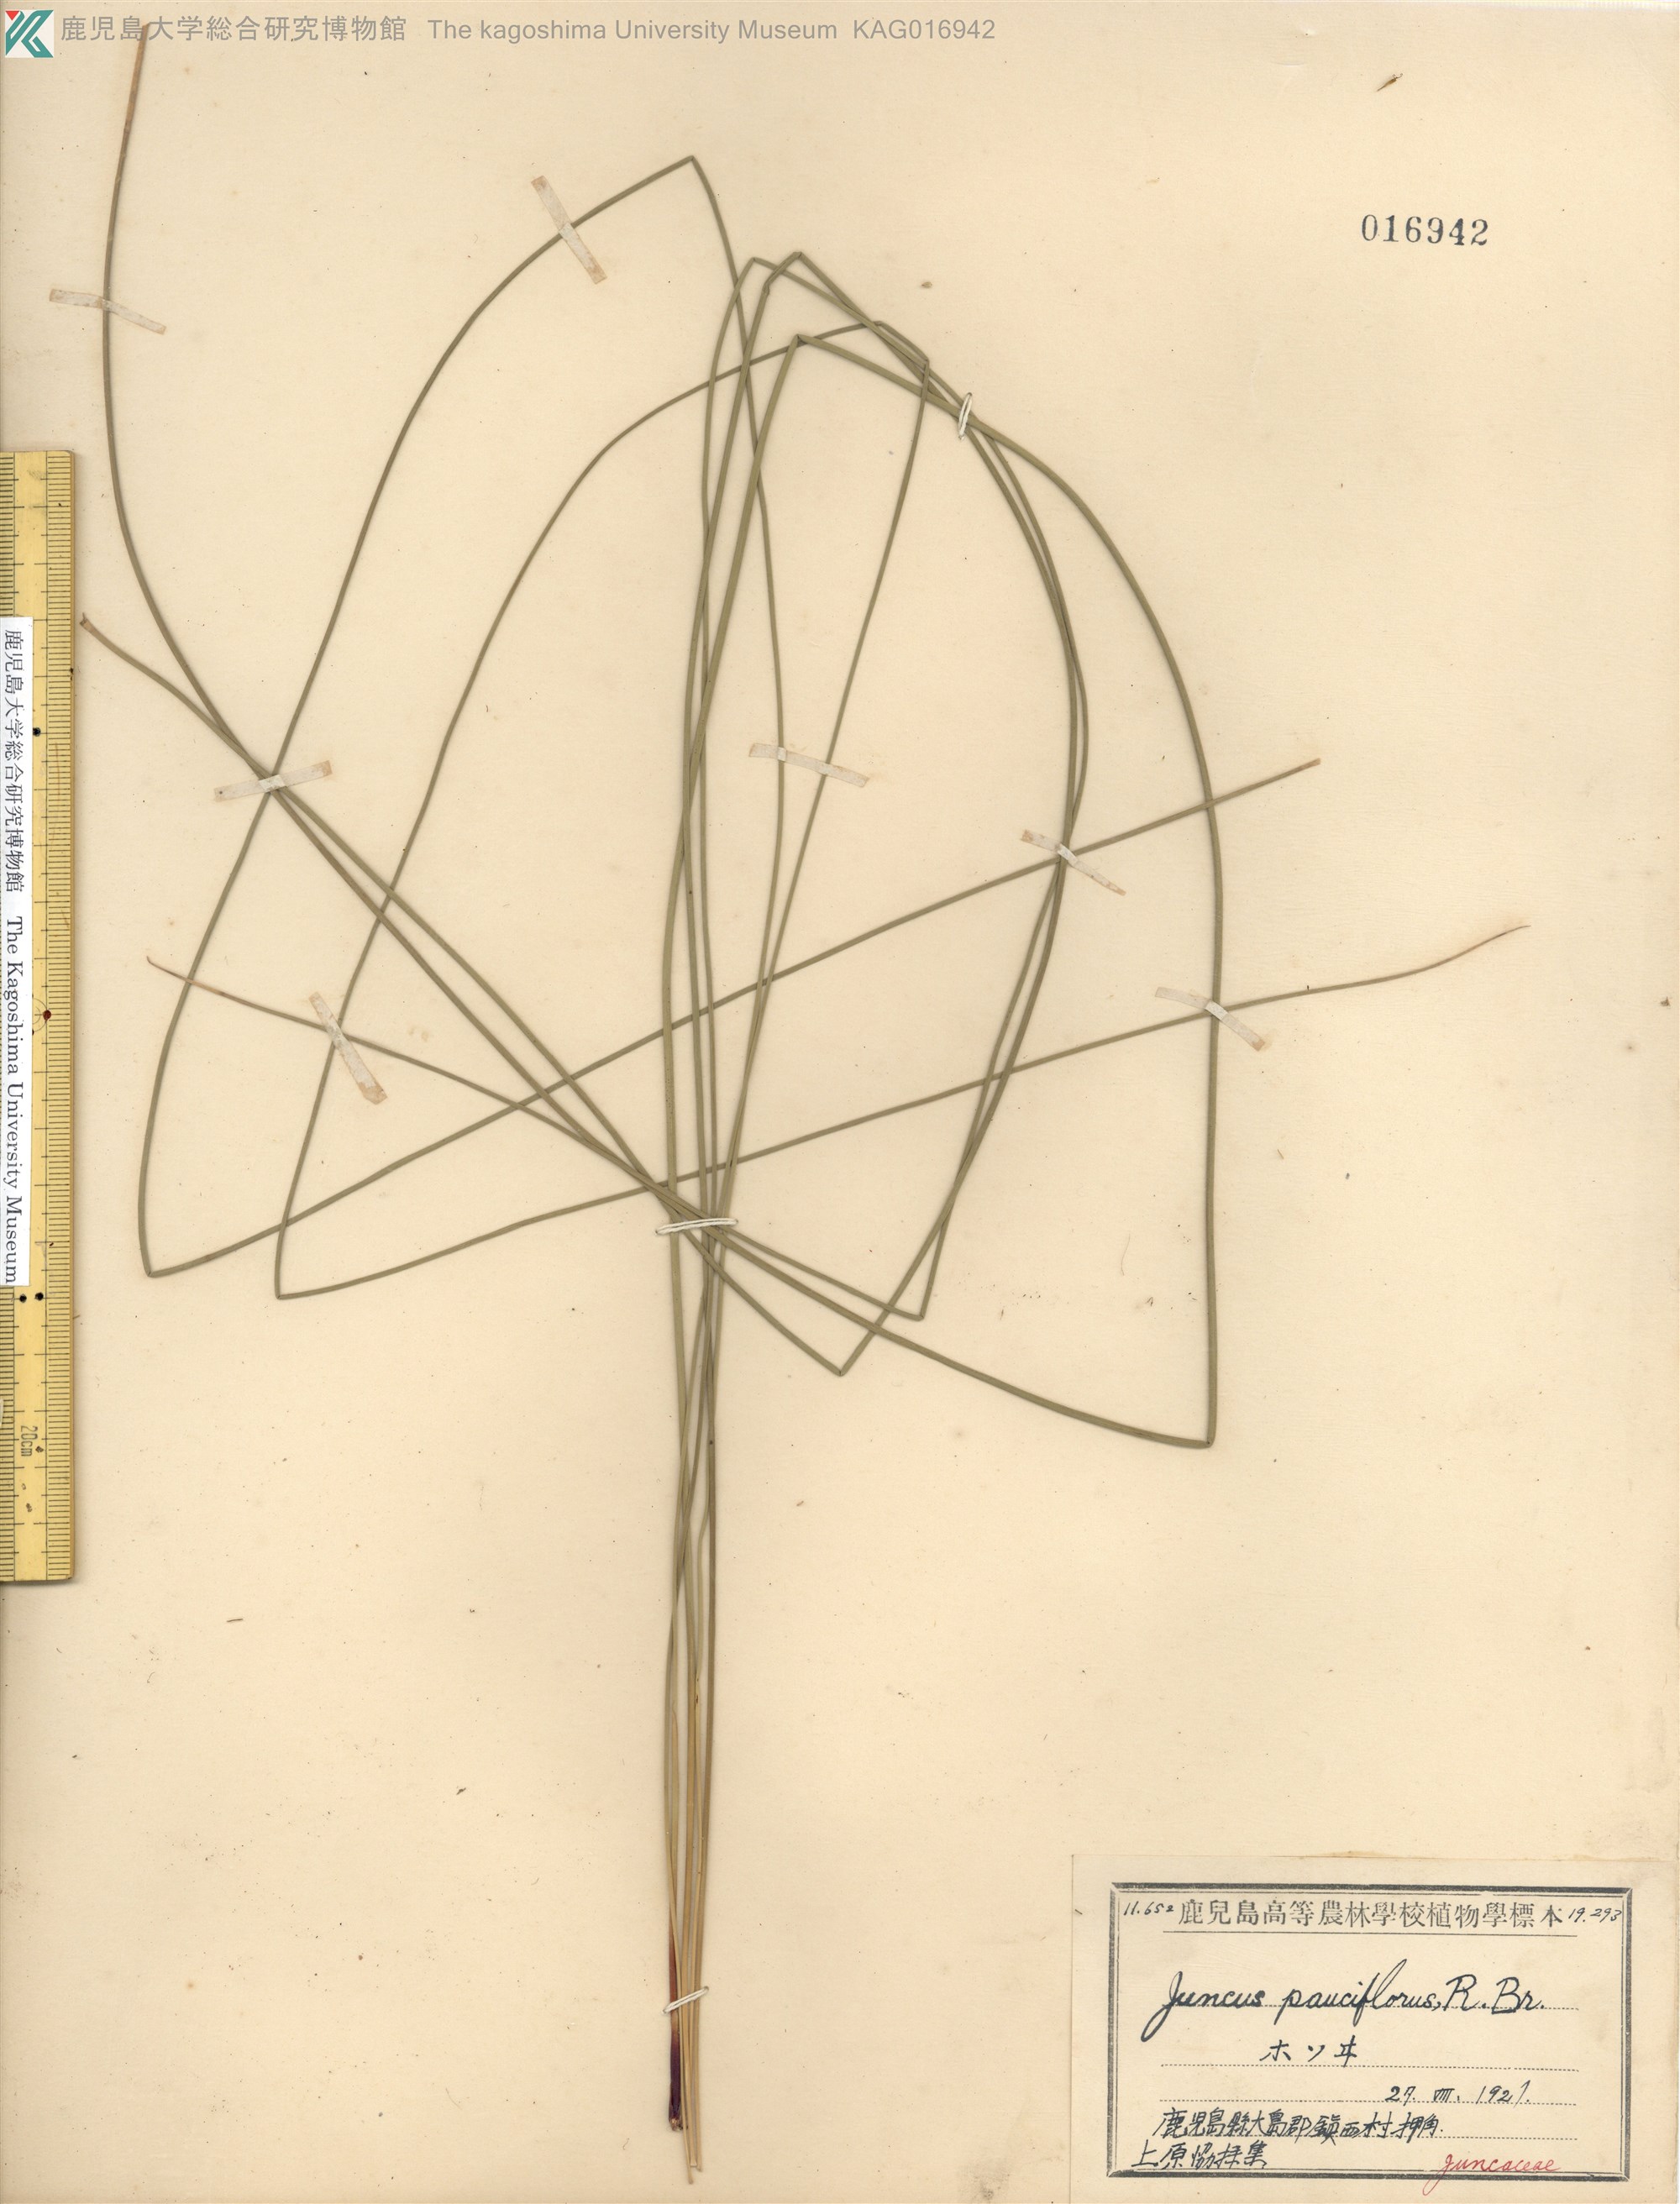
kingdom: Plantae
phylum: Tracheophyta
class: Liliopsida
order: Poales
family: Juncaceae
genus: Juncus
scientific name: Juncus decipiens
